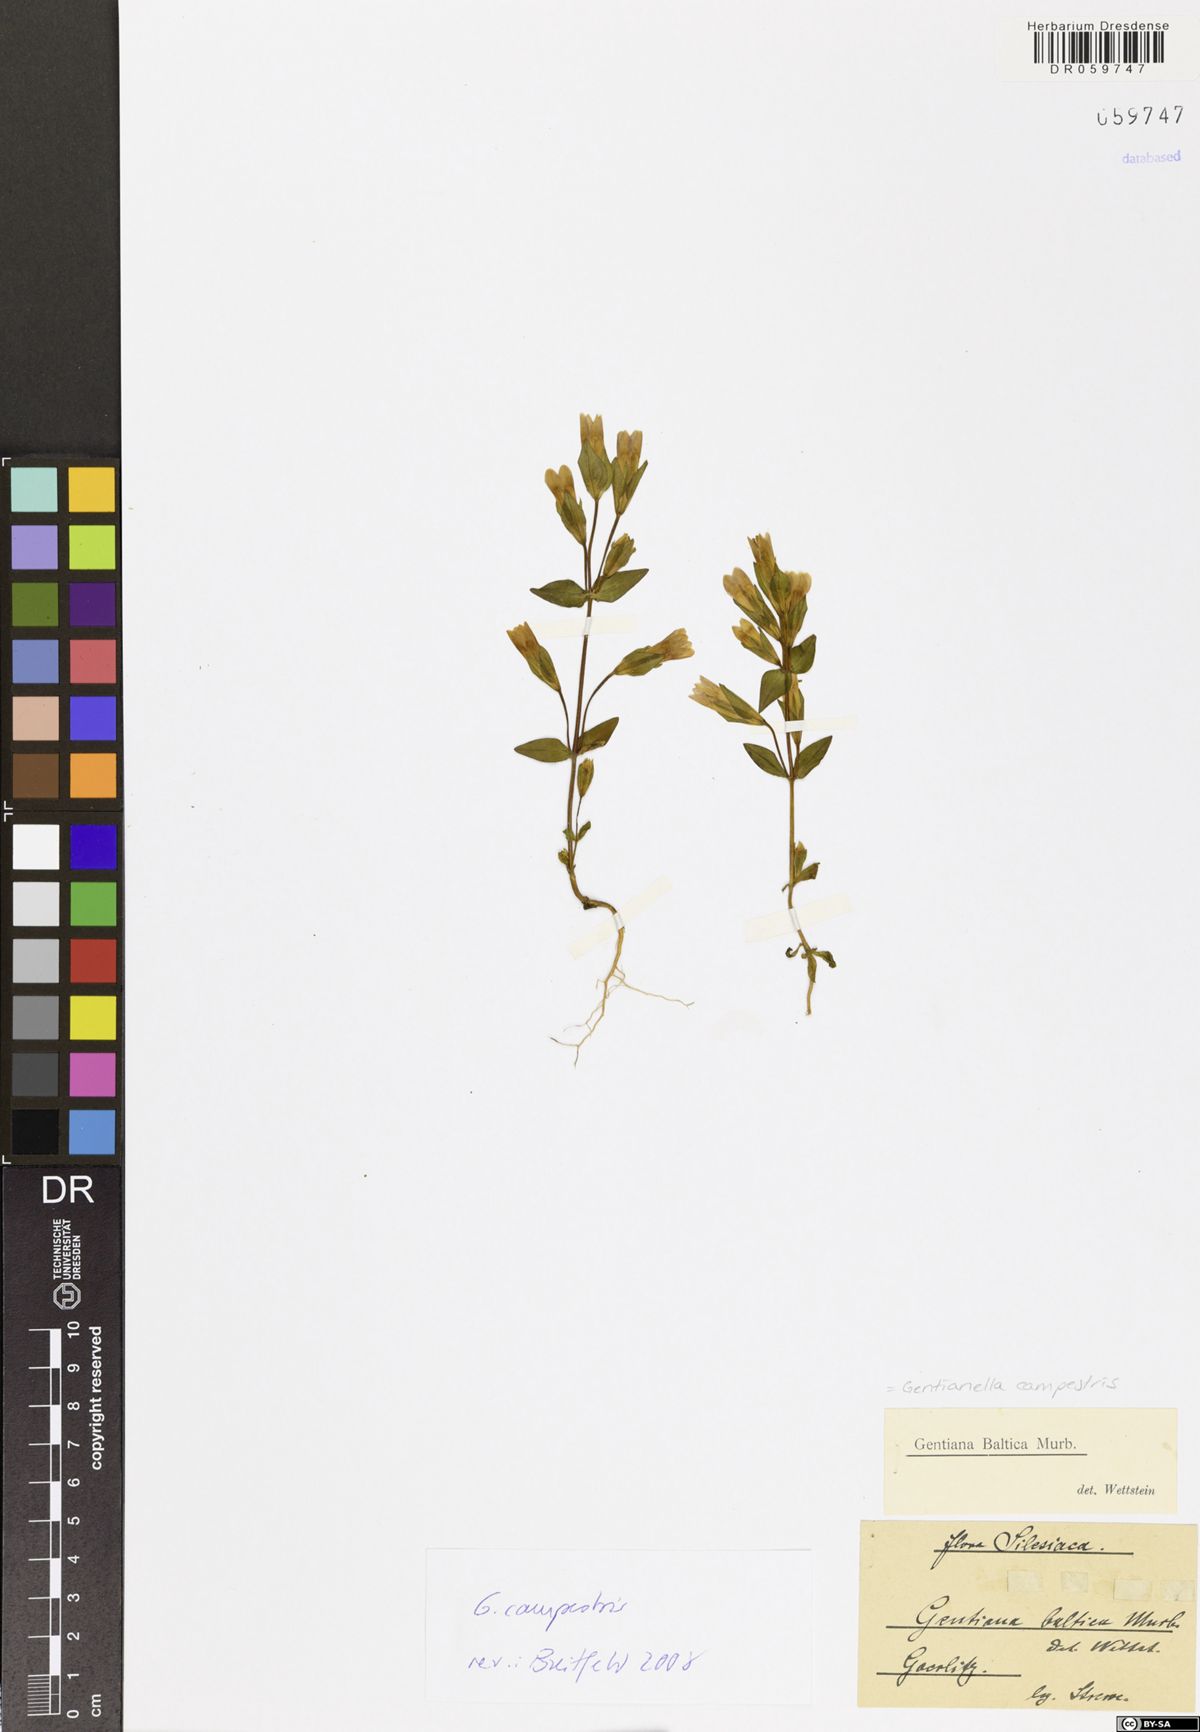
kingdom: Plantae
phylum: Tracheophyta
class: Magnoliopsida
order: Gentianales
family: Gentianaceae
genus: Gentianella
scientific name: Gentianella campestris
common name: Field gentian
